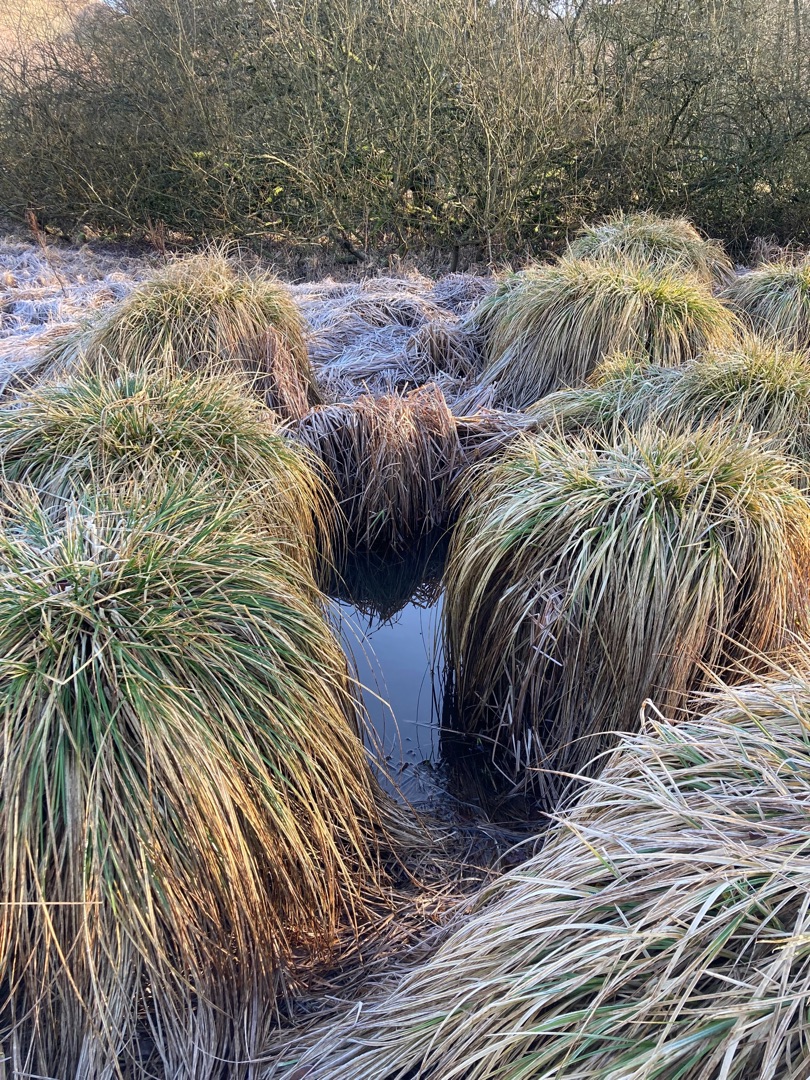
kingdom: Plantae
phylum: Tracheophyta
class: Liliopsida
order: Poales
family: Cyperaceae
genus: Carex
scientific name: Carex paniculata
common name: Top-star
